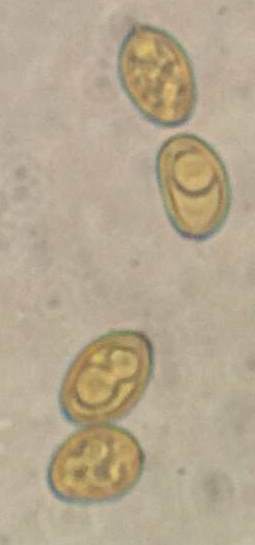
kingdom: Fungi
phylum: Basidiomycota
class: Agaricomycetes
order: Boletales
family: Serpulaceae
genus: Serpula
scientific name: Serpula himantioides
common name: tyndkødet hussvamp
